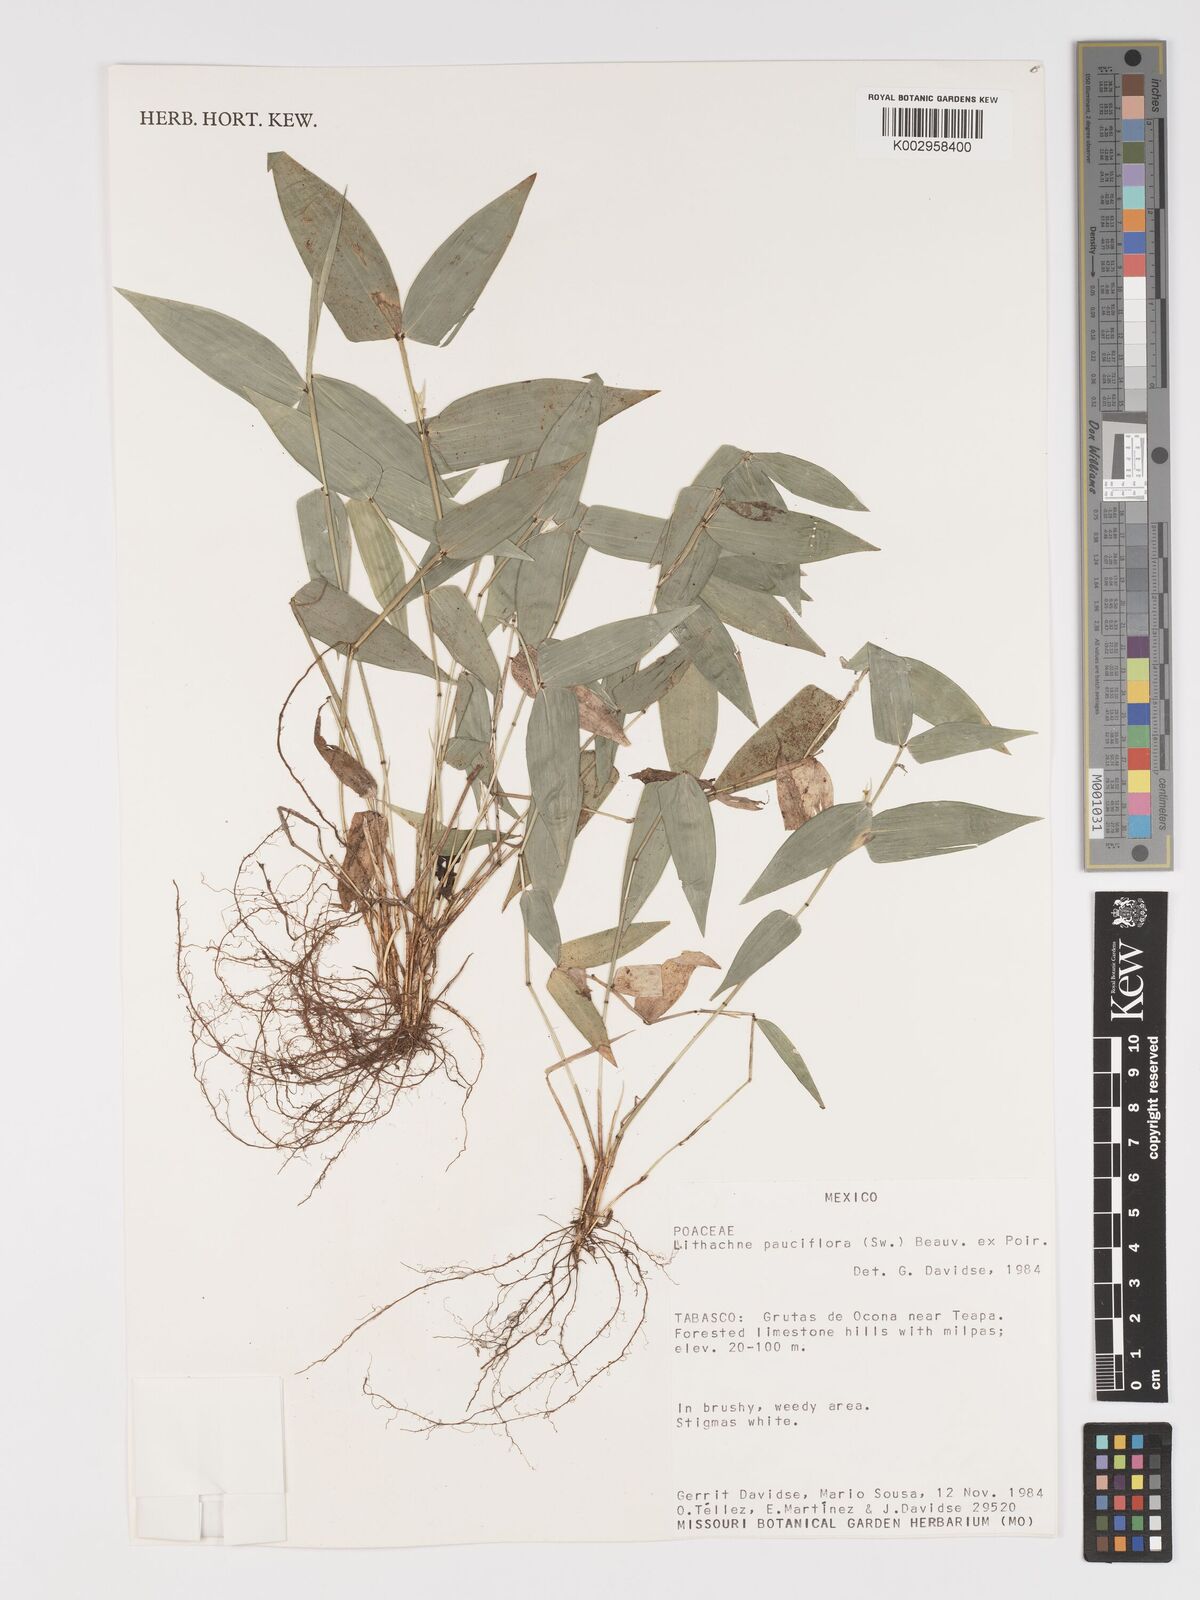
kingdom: Plantae
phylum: Tracheophyta
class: Liliopsida
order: Poales
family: Poaceae
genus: Lithachne
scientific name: Lithachne pauciflora
